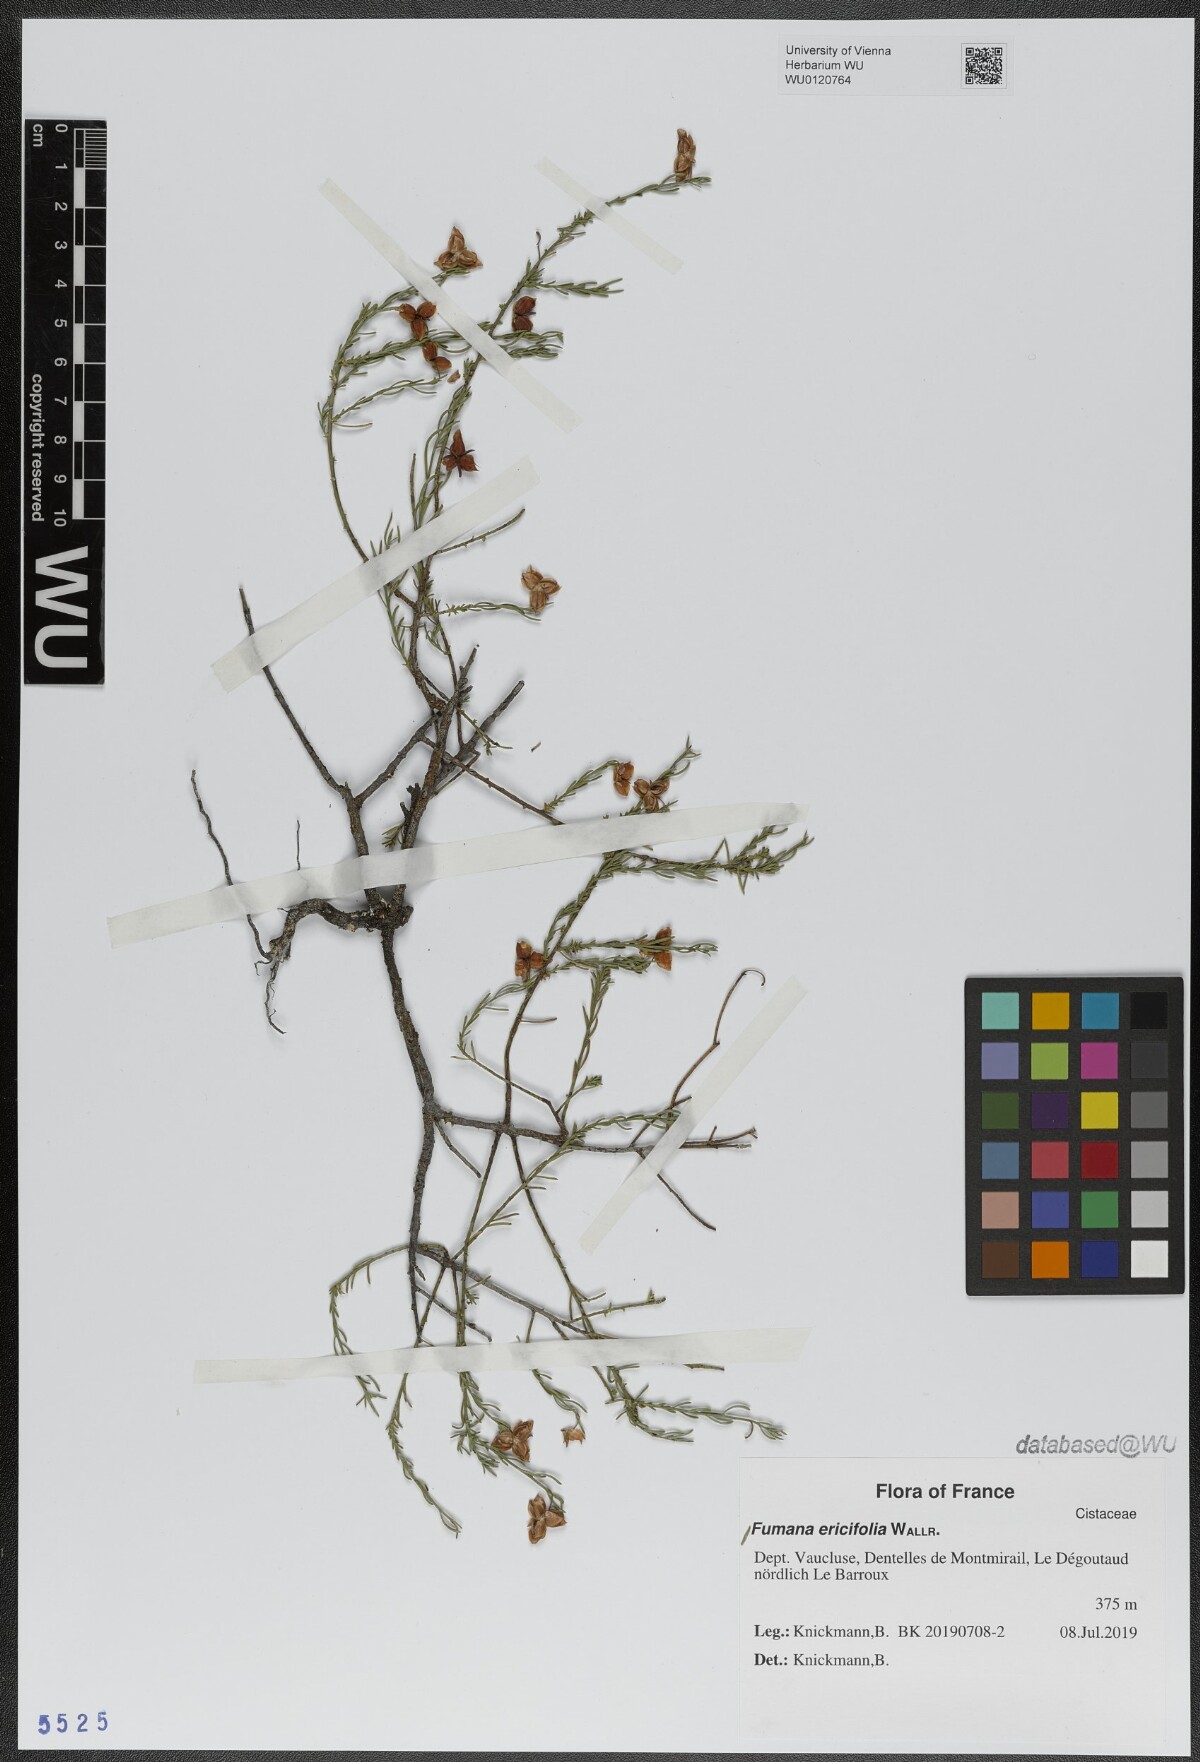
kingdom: Plantae
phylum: Tracheophyta
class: Magnoliopsida
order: Malvales
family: Cistaceae
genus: Fumana
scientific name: Fumana ericifolia
